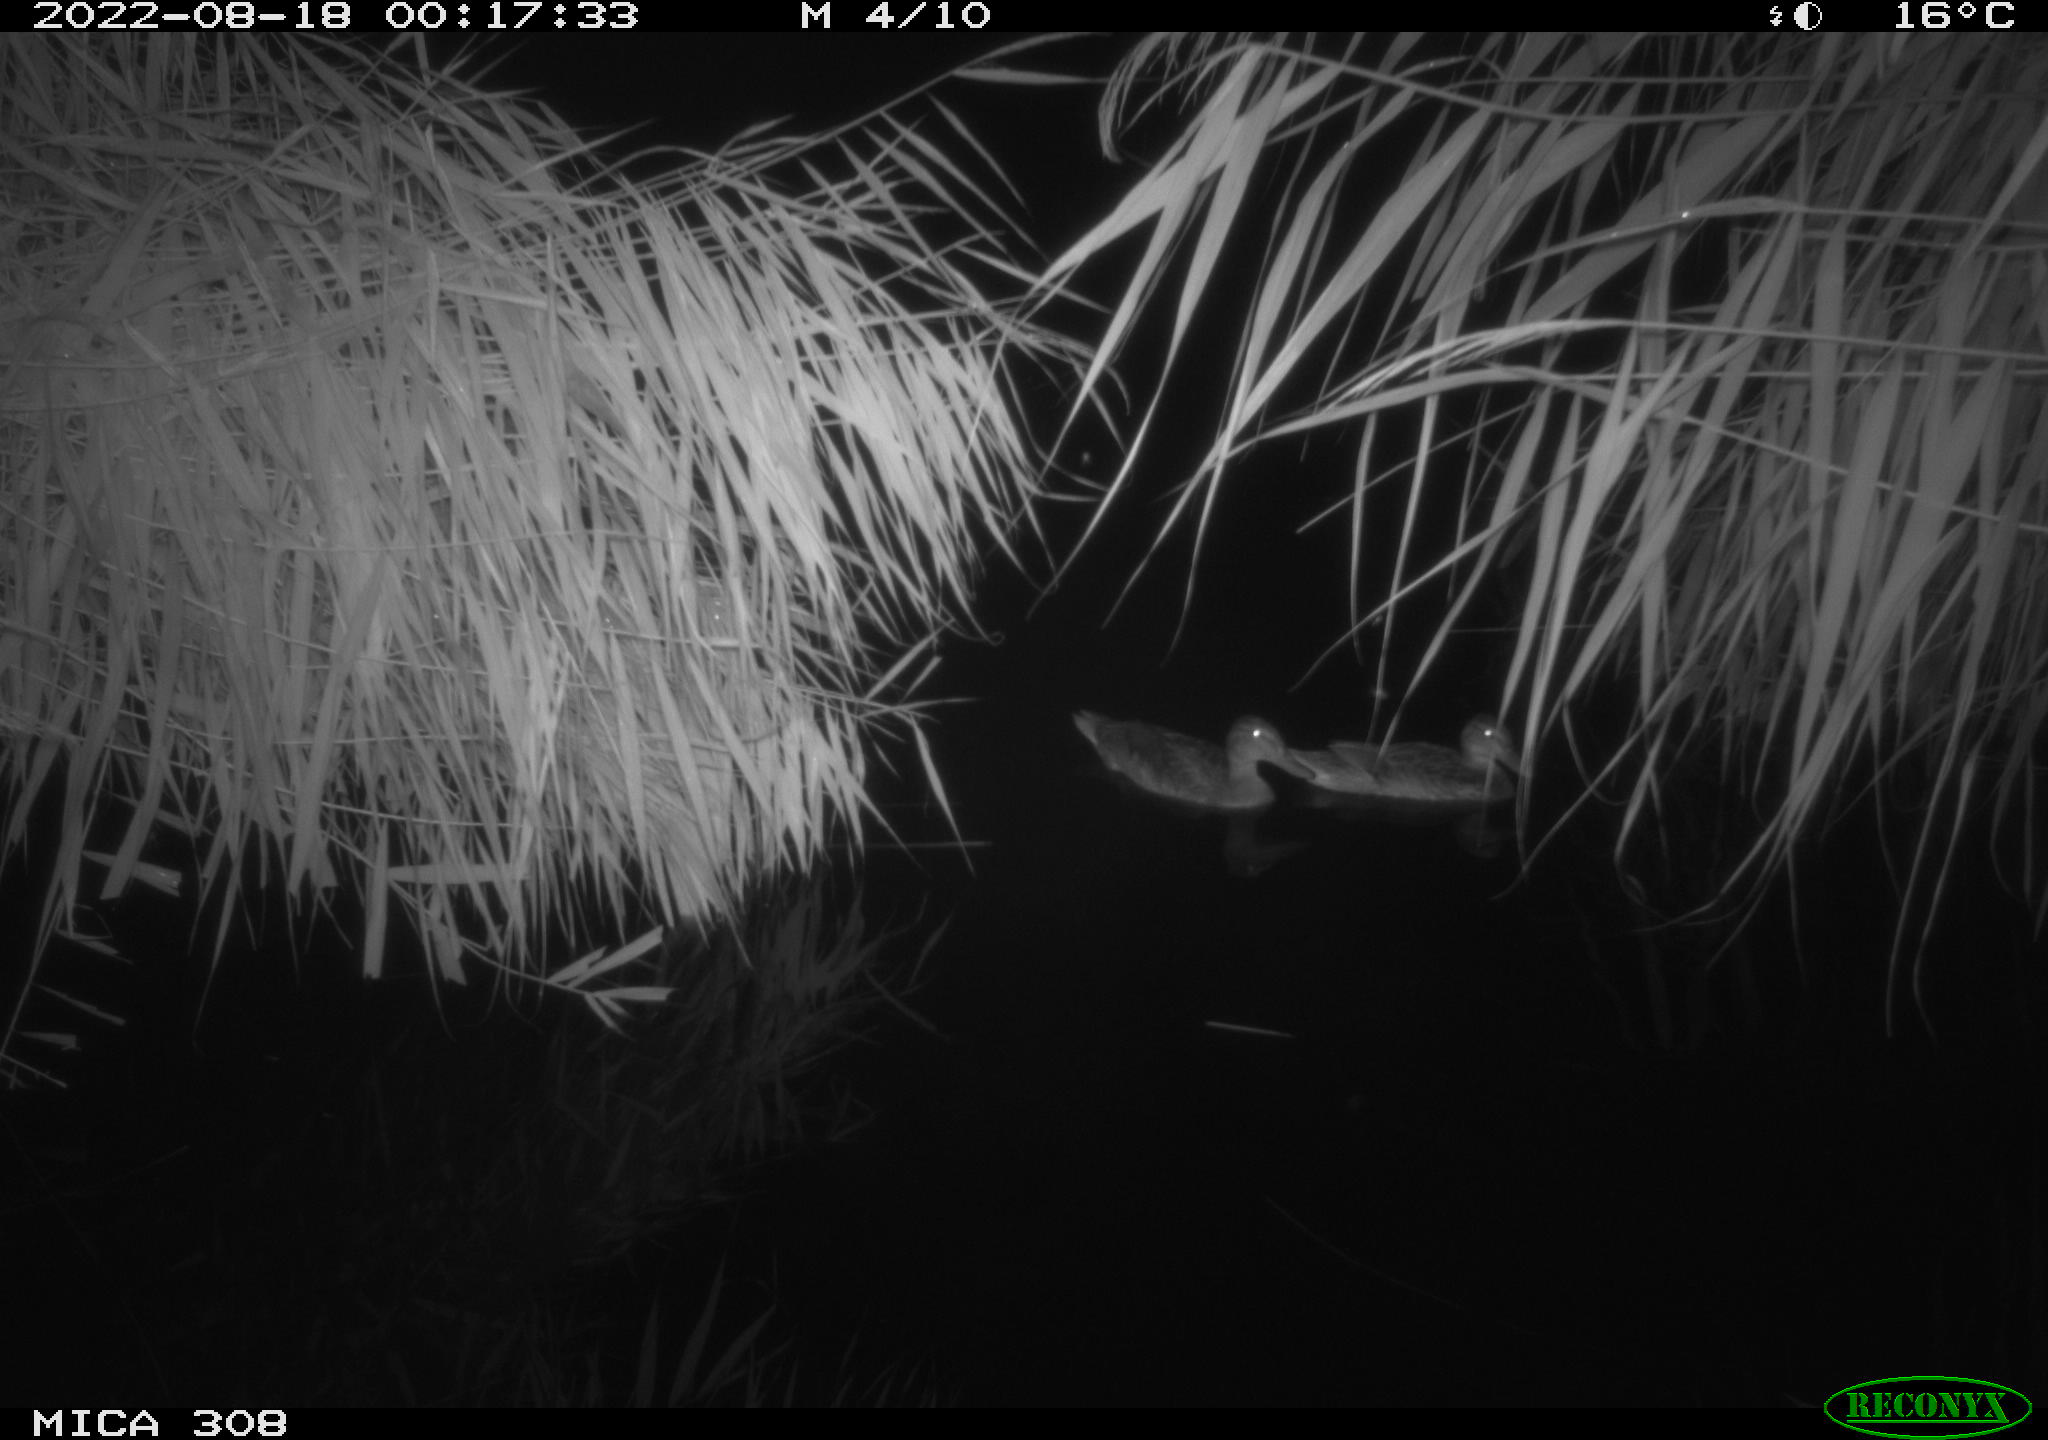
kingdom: Animalia
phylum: Chordata
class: Aves
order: Anseriformes
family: Anatidae
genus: Anas
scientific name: Anas platyrhynchos
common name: Mallard
